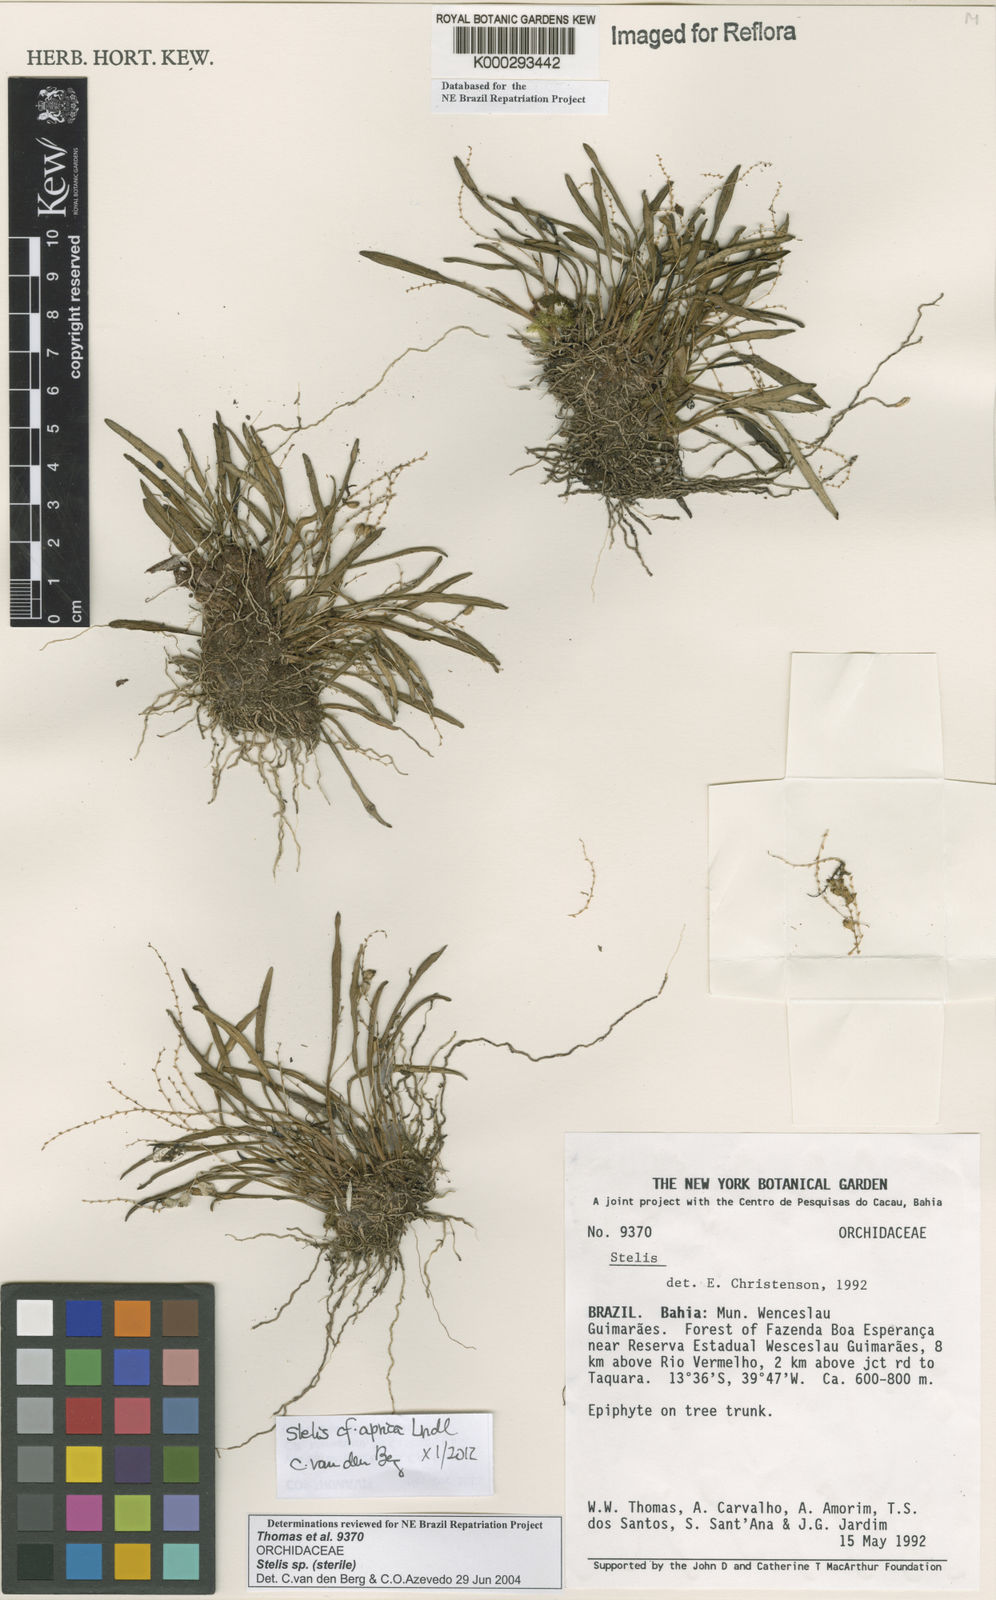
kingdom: Plantae
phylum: Tracheophyta
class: Liliopsida
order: Asparagales
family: Orchidaceae
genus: Stelis
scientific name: Stelis
